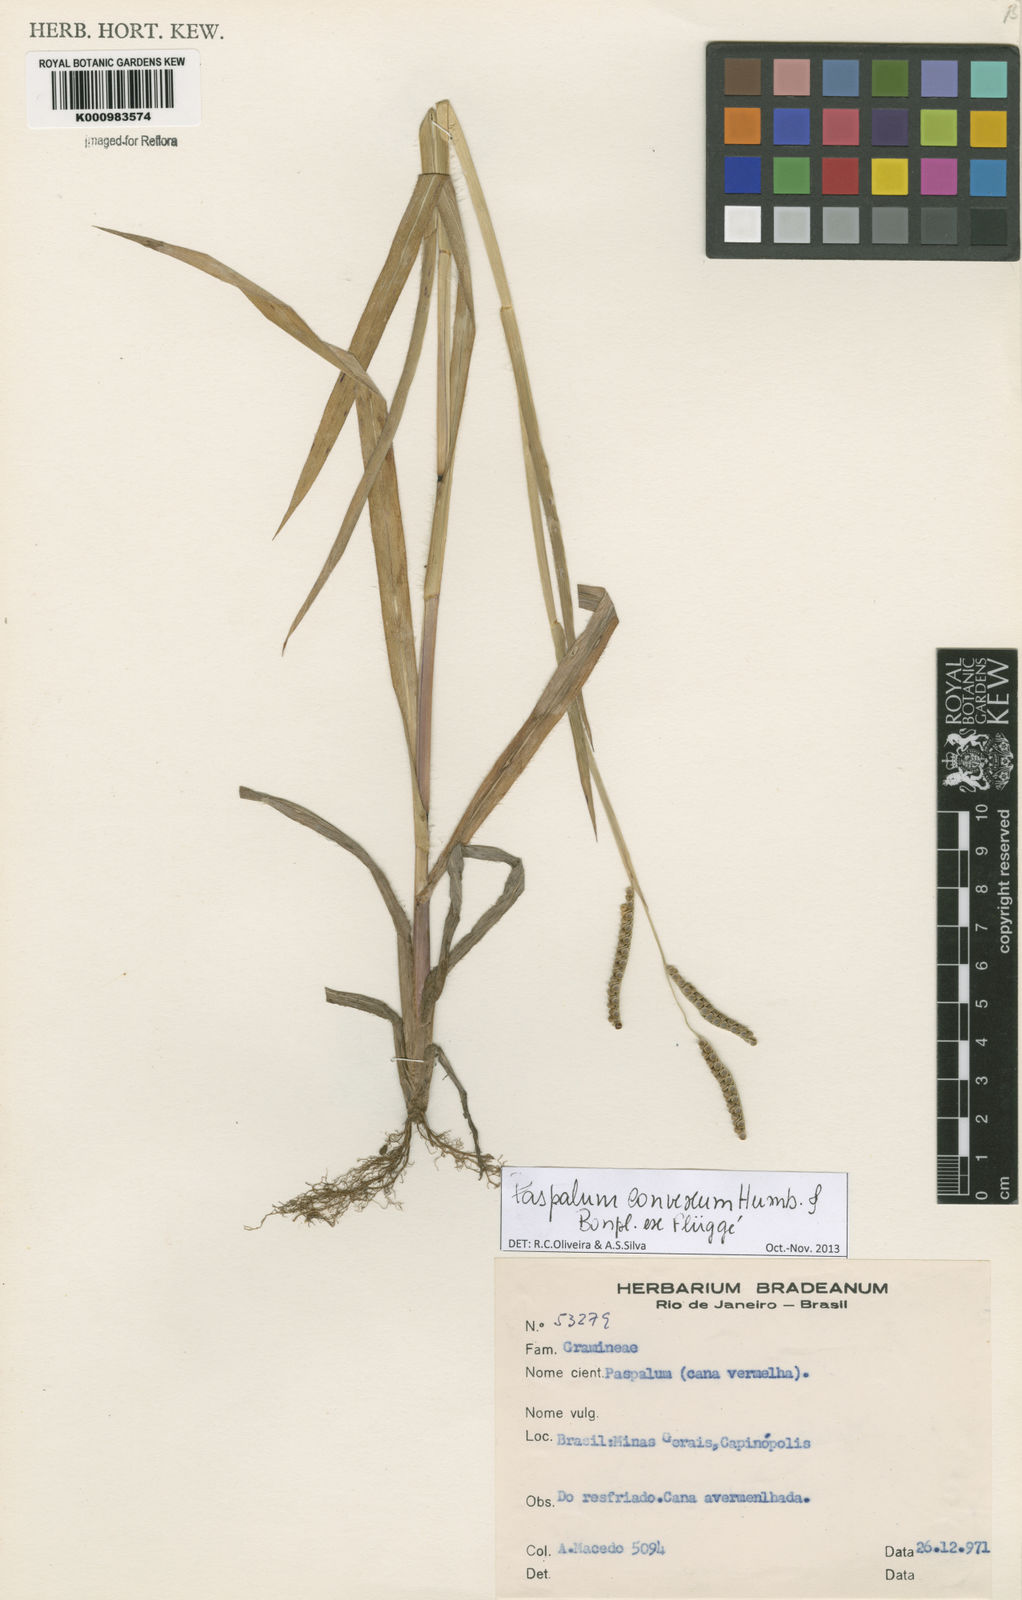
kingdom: Plantae
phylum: Tracheophyta
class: Liliopsida
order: Poales
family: Poaceae
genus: Paspalum
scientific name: Paspalum
